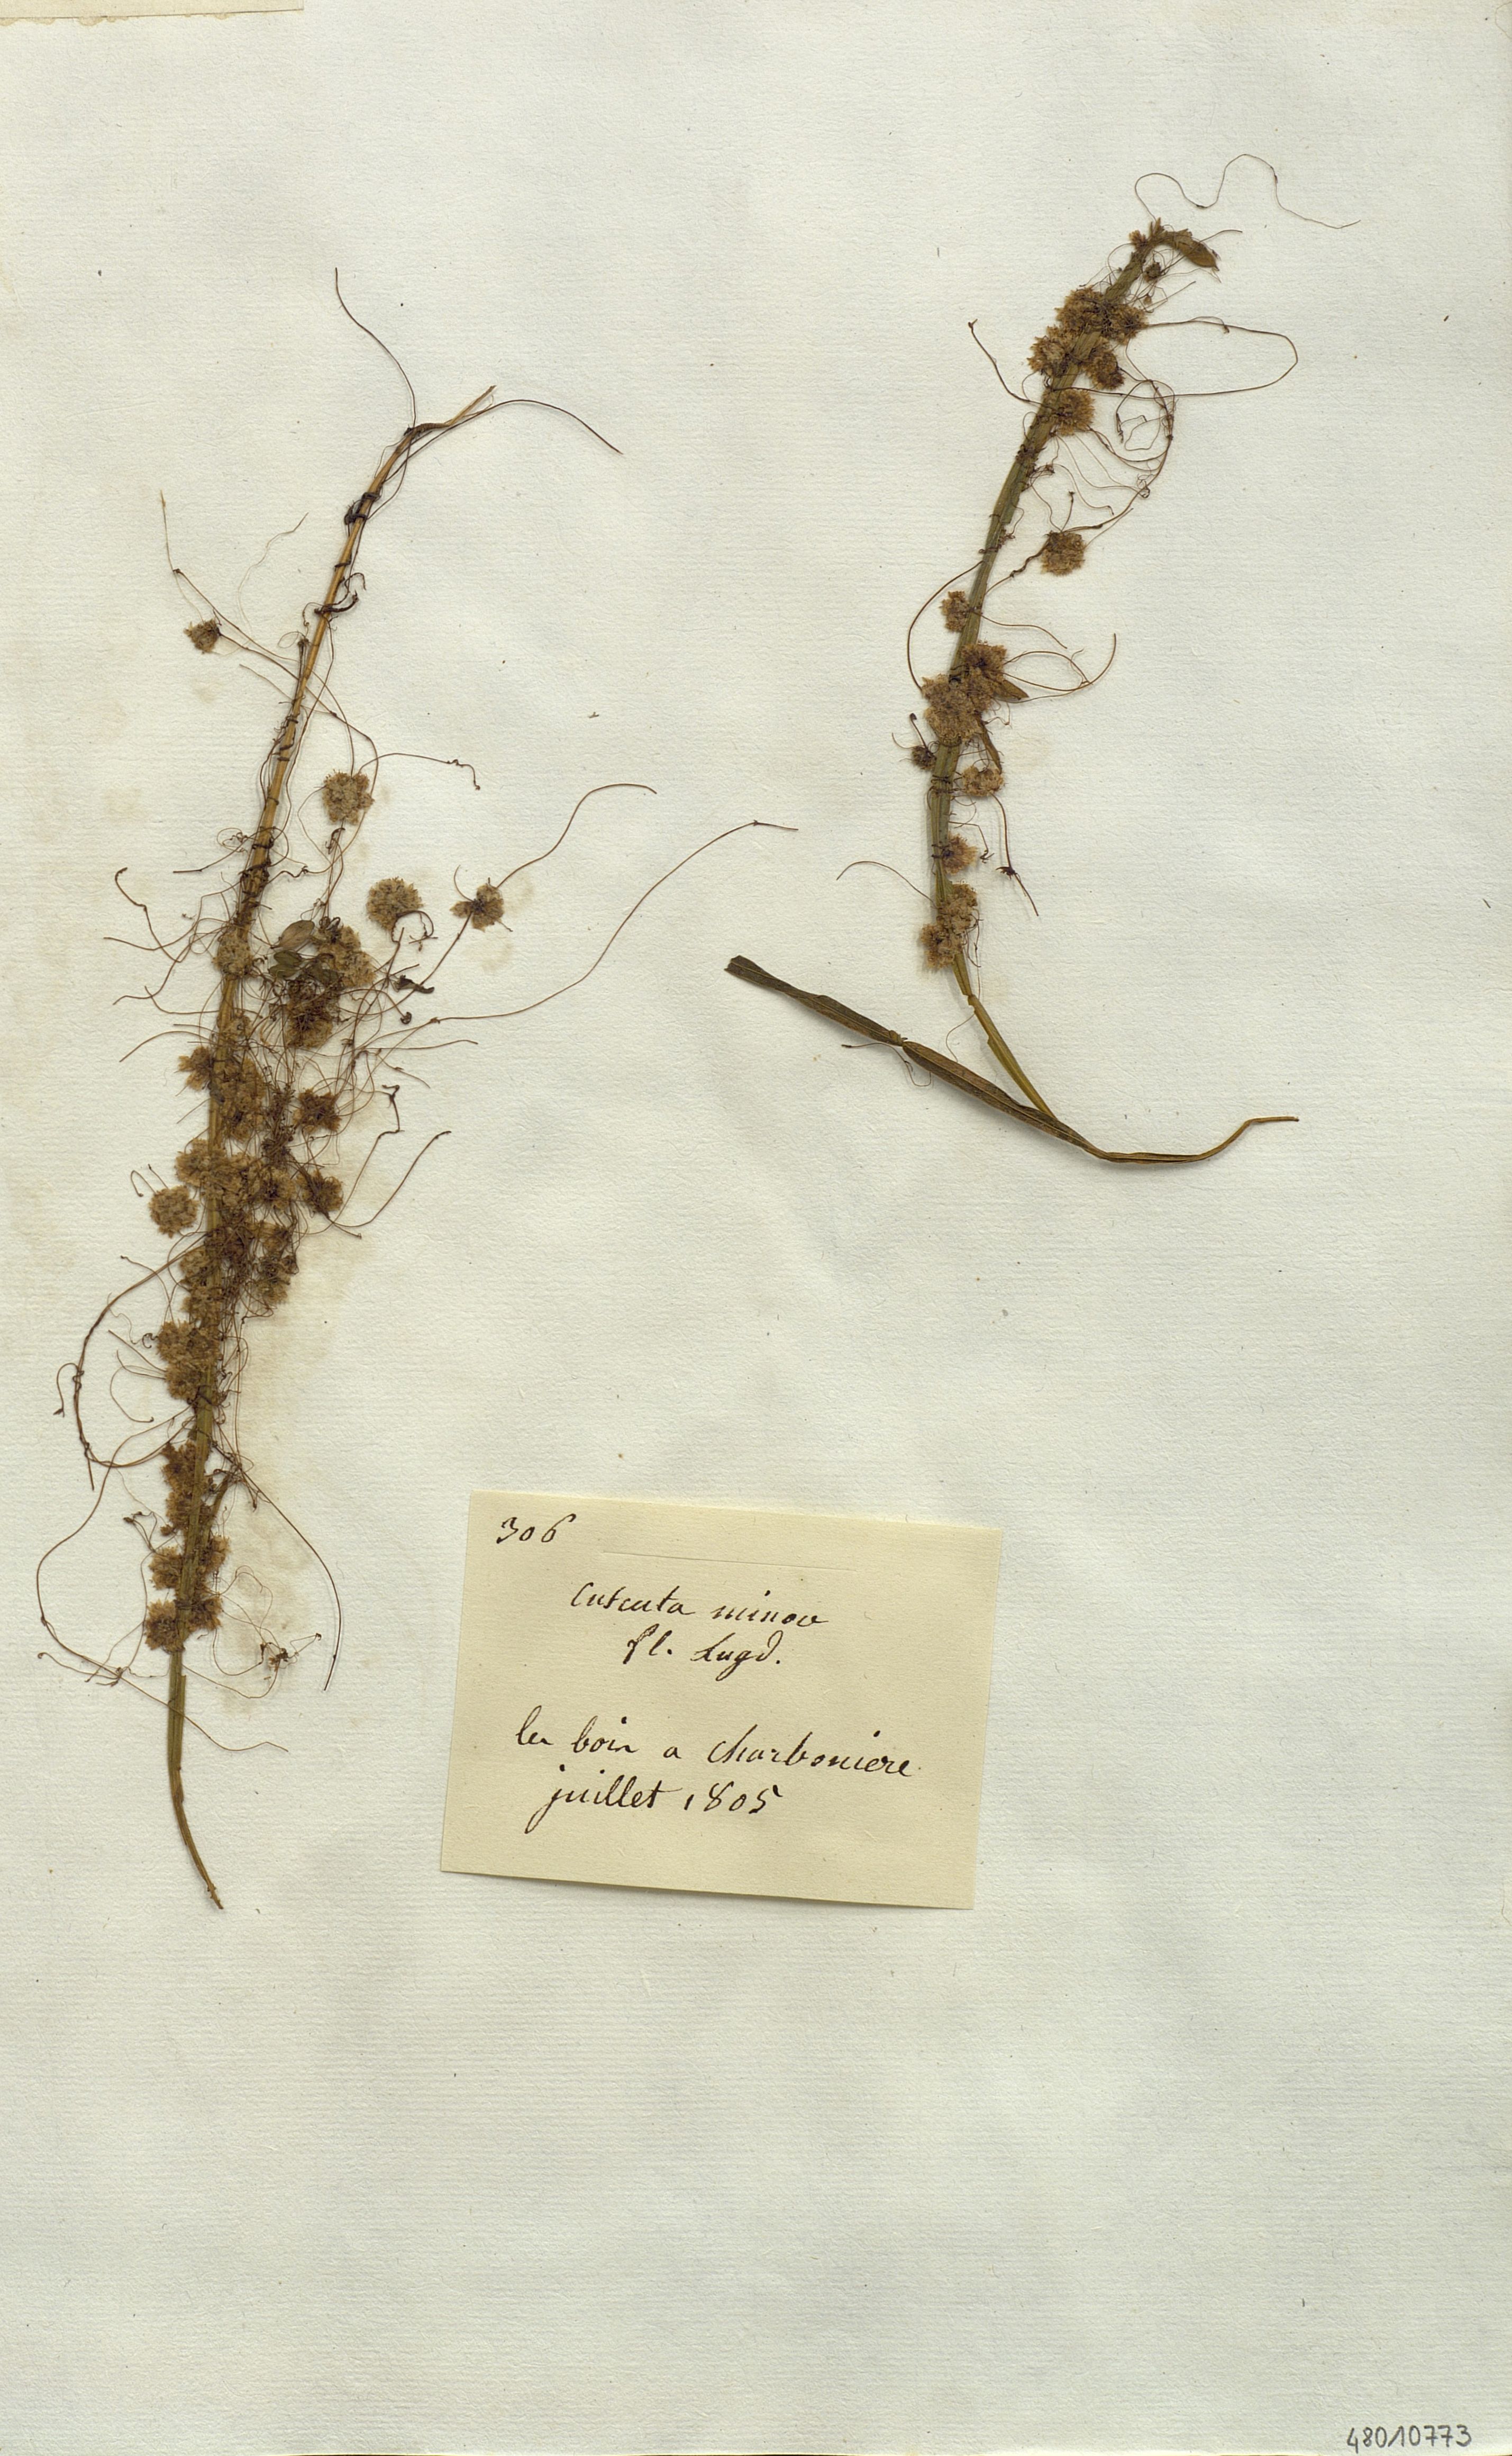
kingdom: Plantae
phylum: Tracheophyta
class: Magnoliopsida
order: Solanales
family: Convolvulaceae
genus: Cuscuta
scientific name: Cuscuta
